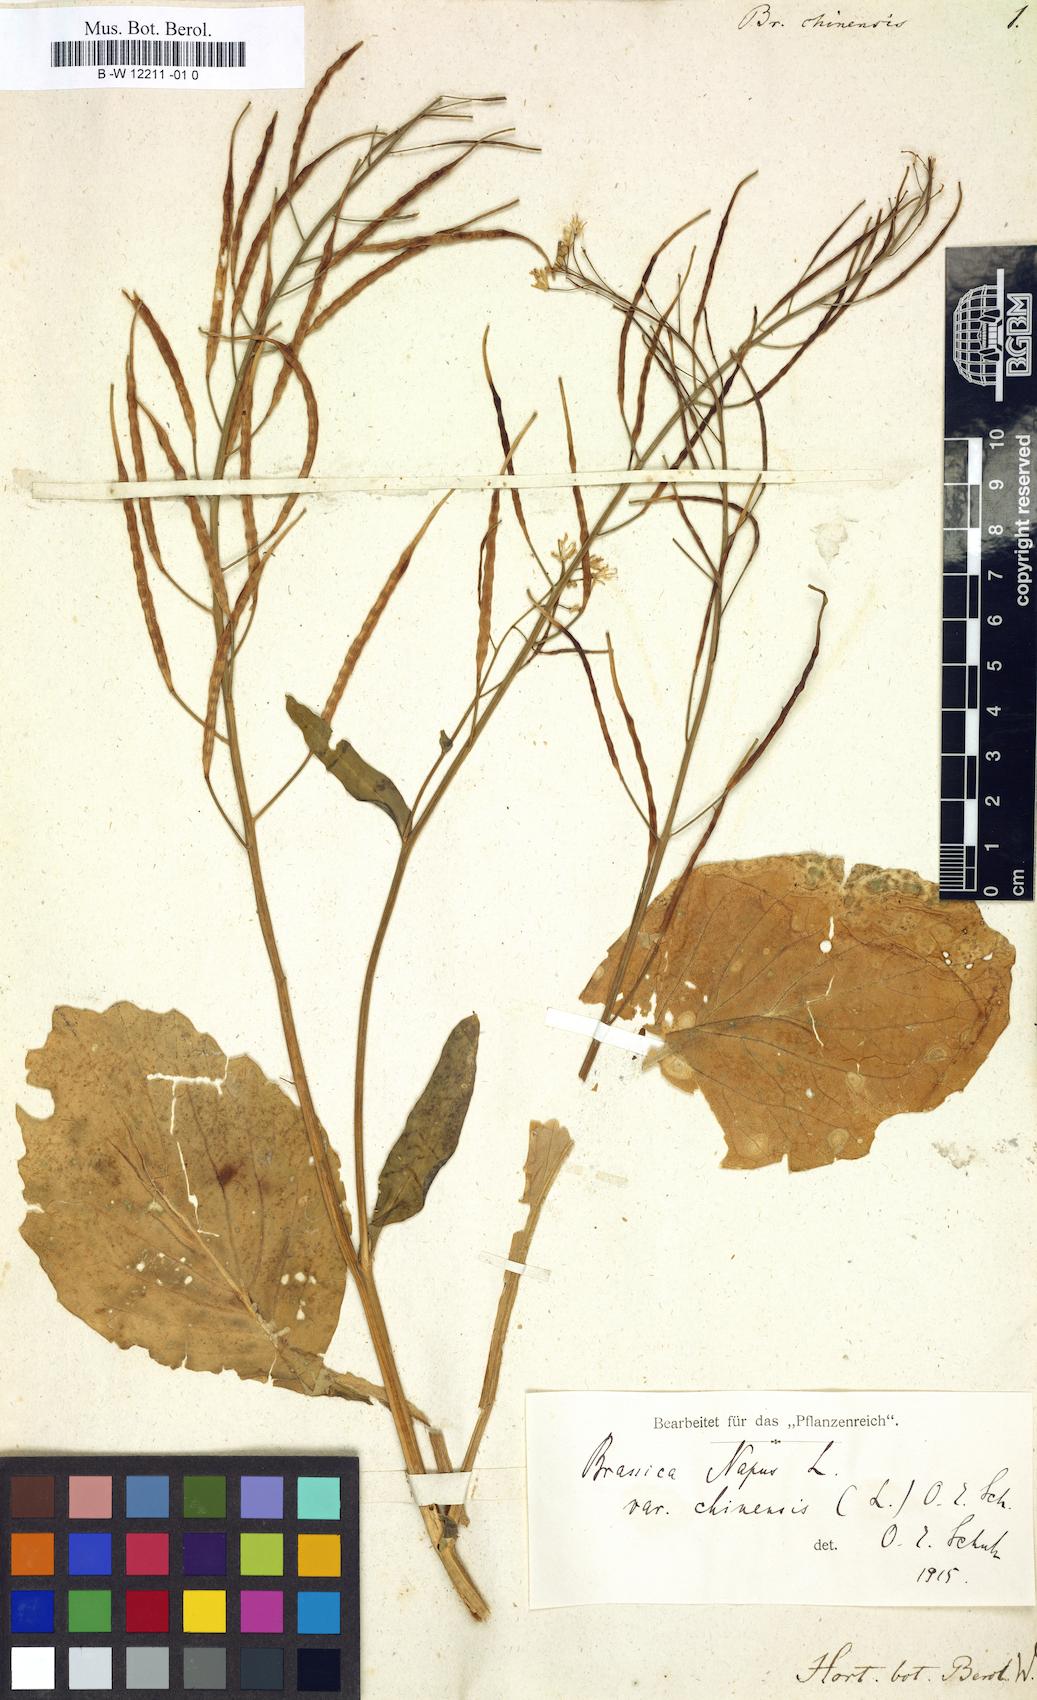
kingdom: Plantae
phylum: Tracheophyta
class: Magnoliopsida
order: Brassicales
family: Brassicaceae
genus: Brassica
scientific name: Brassica rapa
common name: Field mustard
